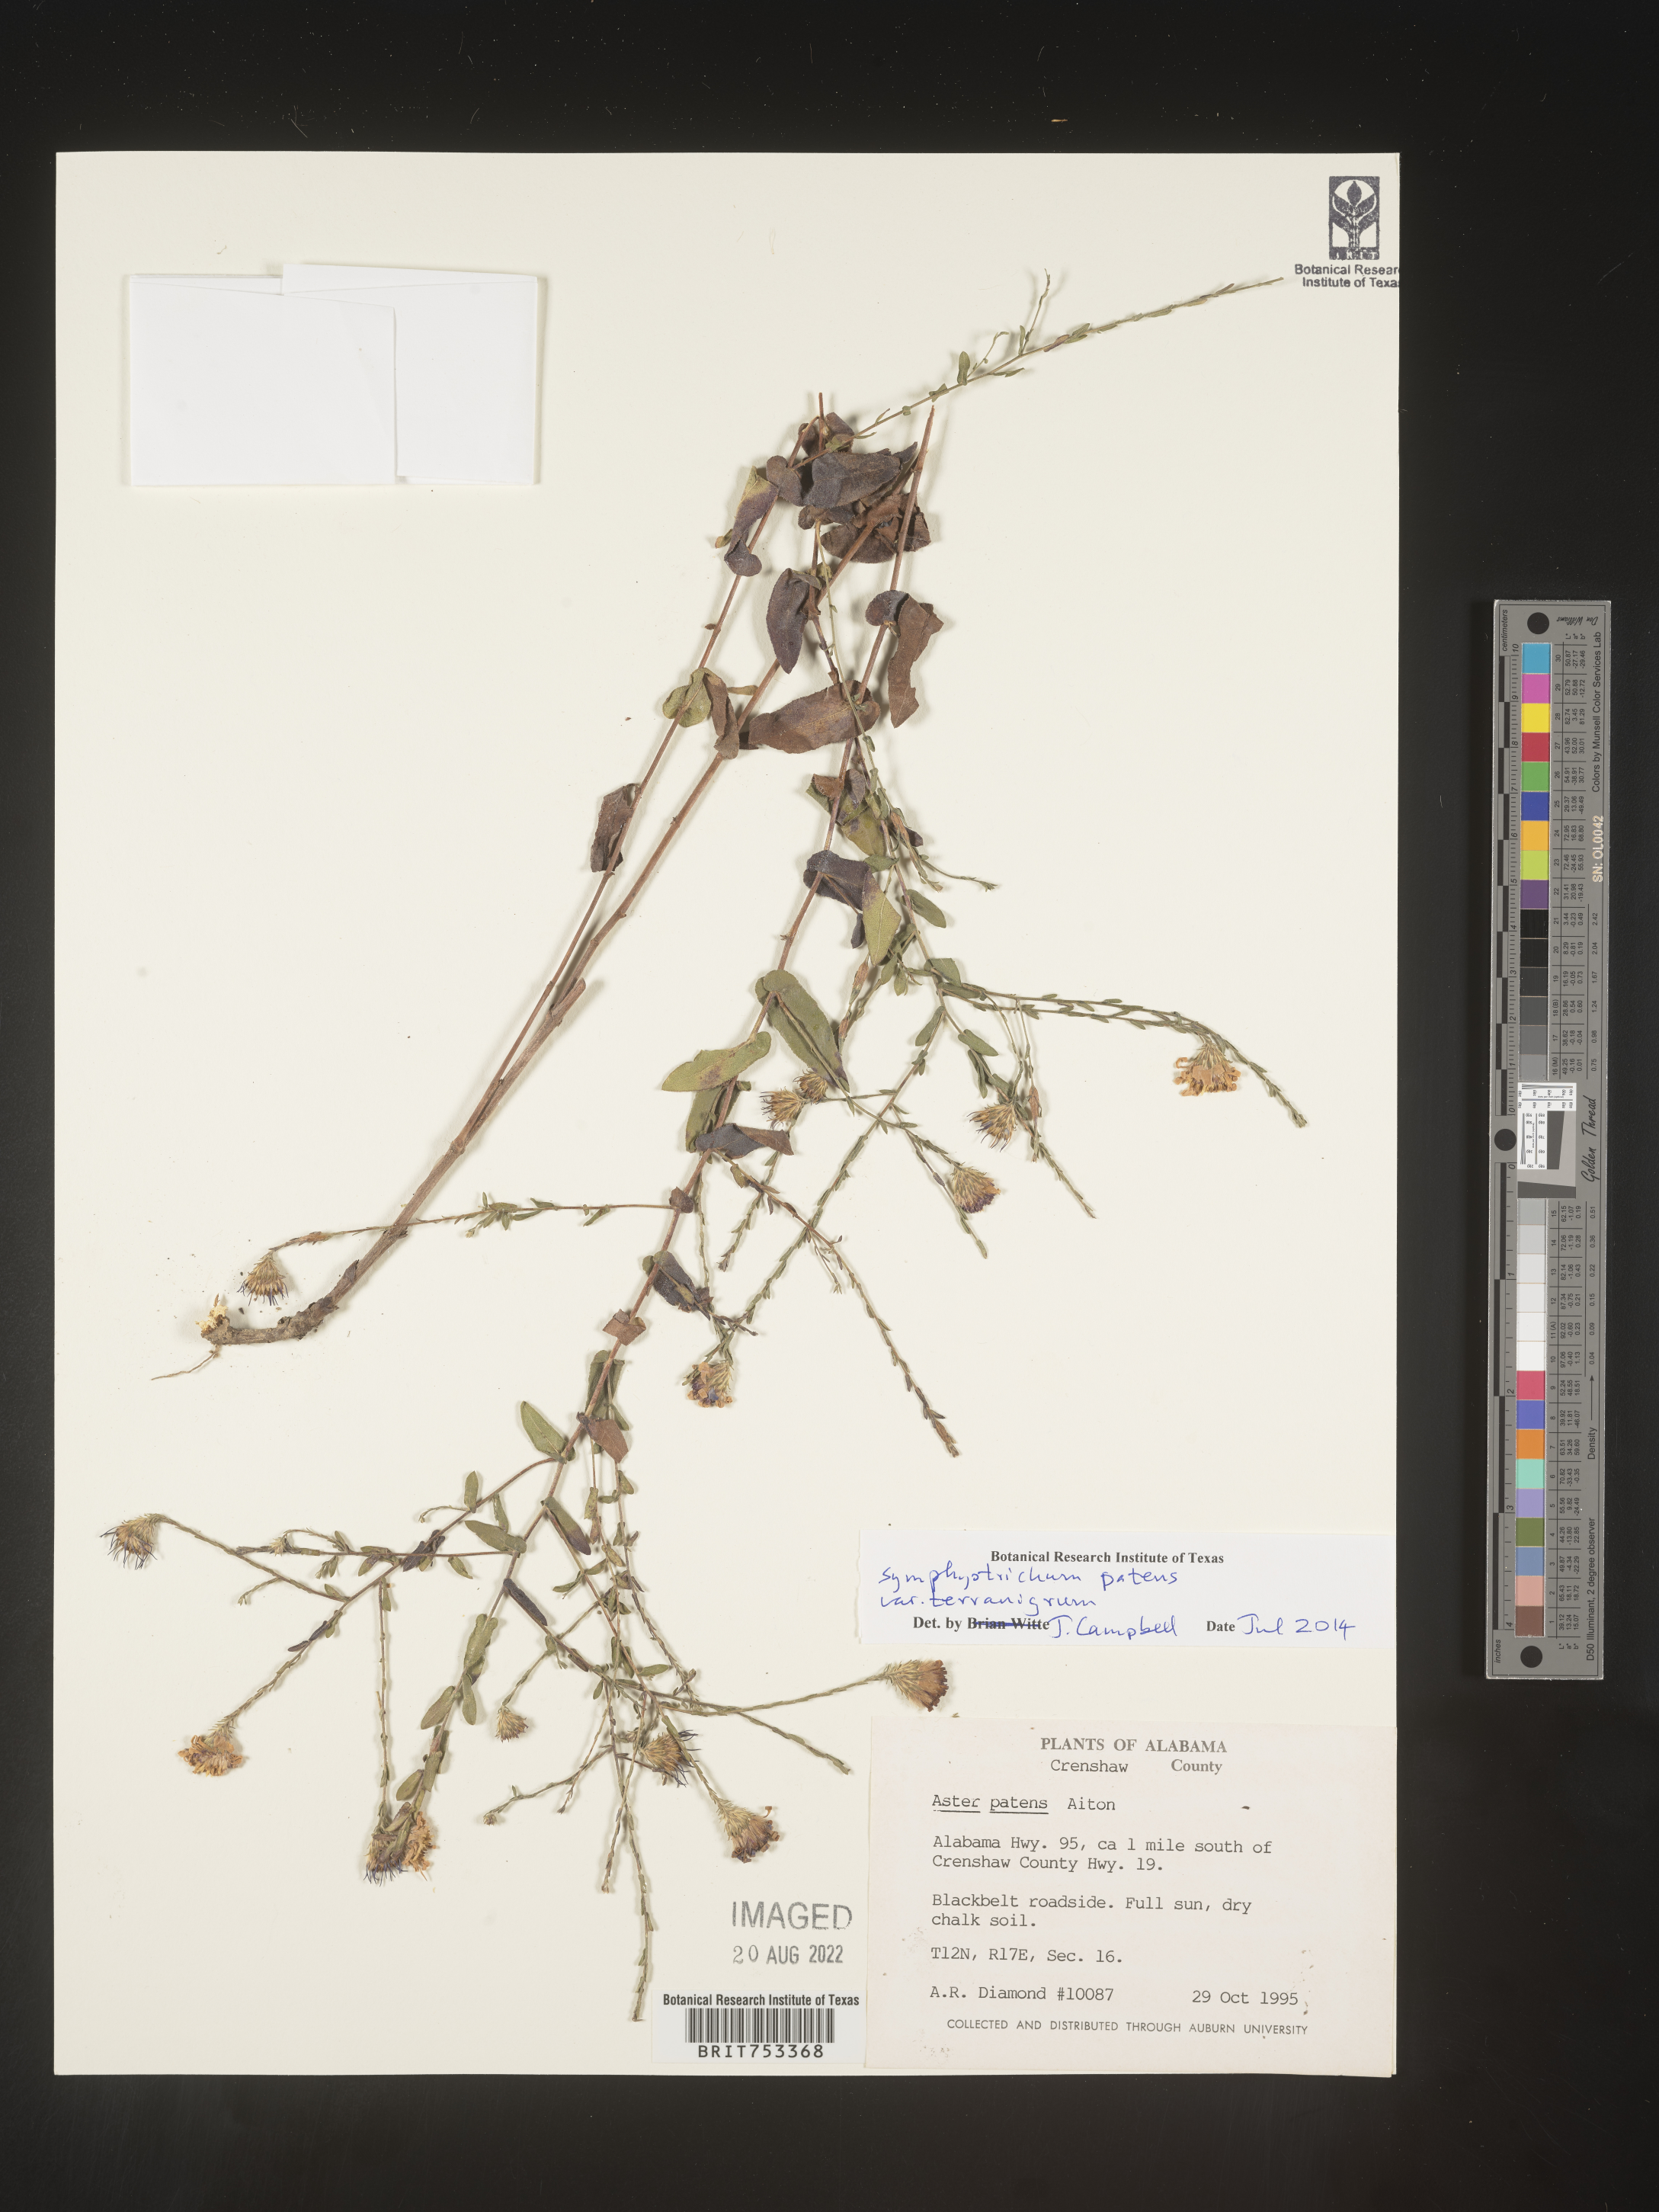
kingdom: Plantae
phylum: Tracheophyta
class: Magnoliopsida
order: Asterales
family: Asteraceae
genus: Symphyotrichum
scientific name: Symphyotrichum patens
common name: Late purple aster
